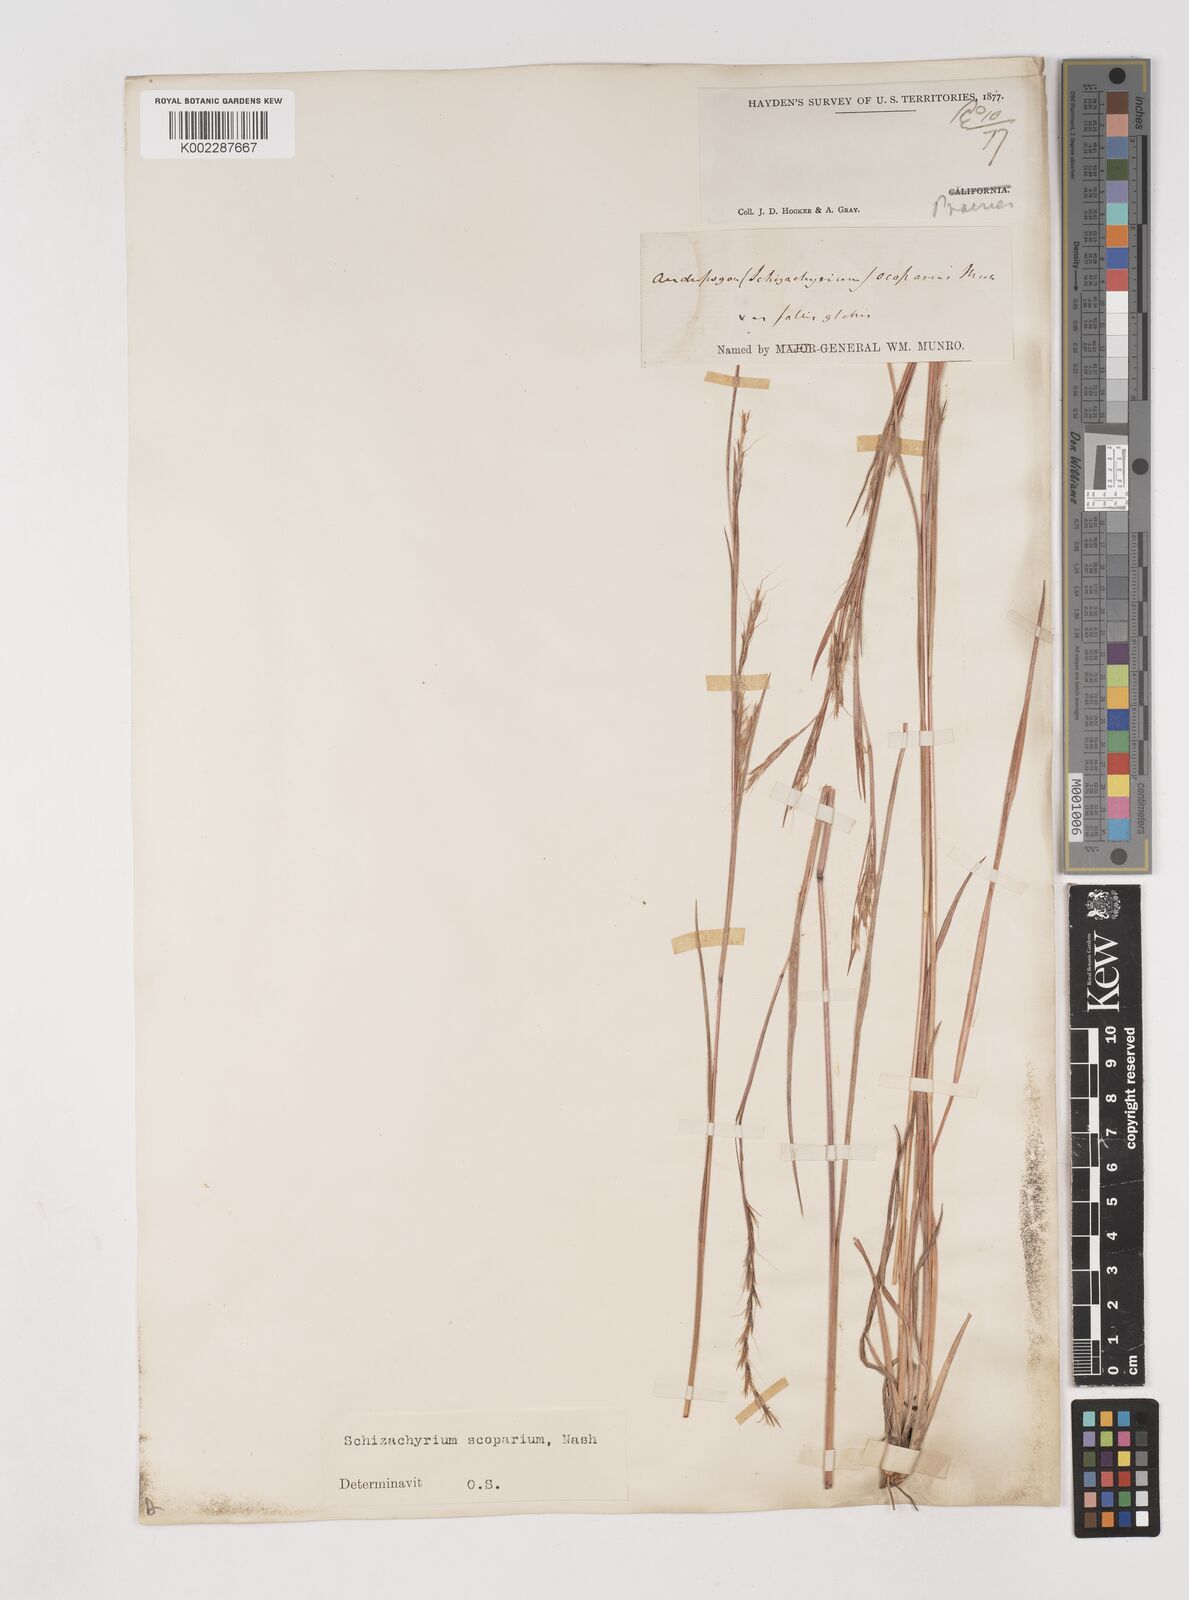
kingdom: Plantae
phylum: Tracheophyta
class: Liliopsida
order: Poales
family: Poaceae
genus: Schizachyrium
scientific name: Schizachyrium scoparium
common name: Little bluestem
